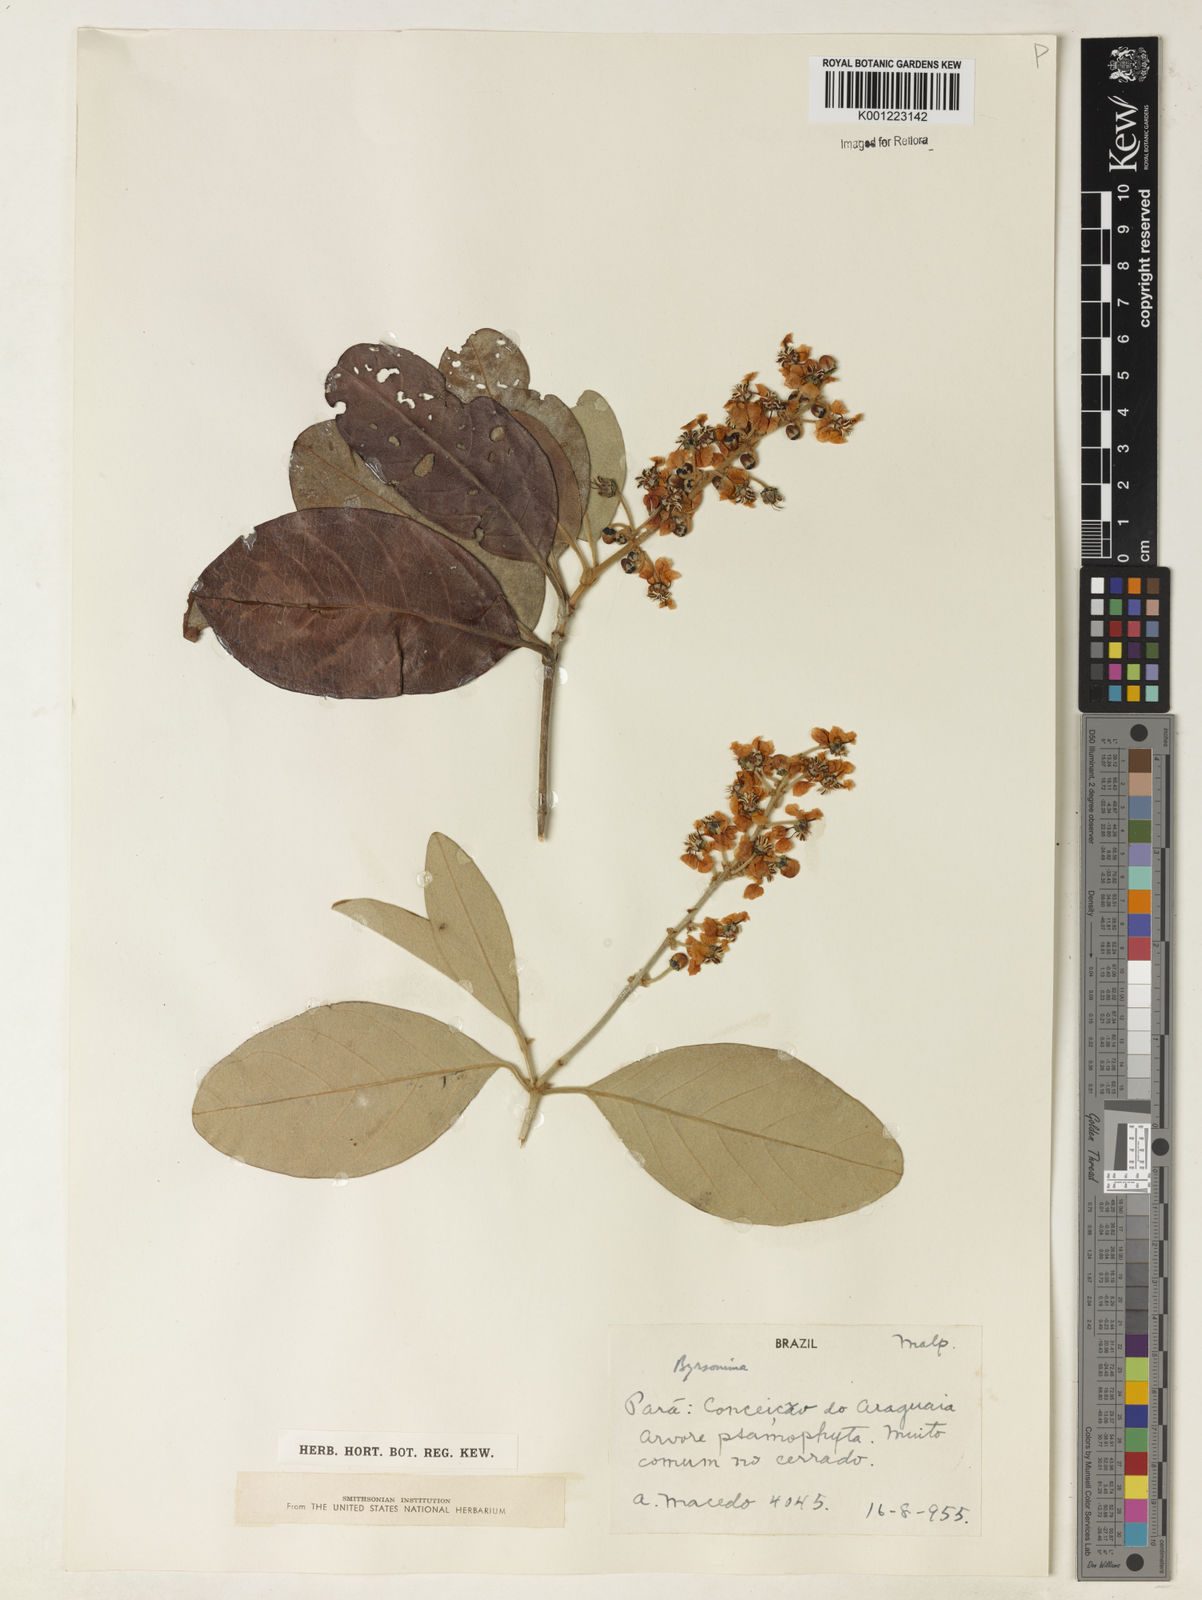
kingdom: Plantae
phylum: Tracheophyta
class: Magnoliopsida
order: Malpighiales
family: Malpighiaceae
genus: Byrsonima
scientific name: Byrsonima
